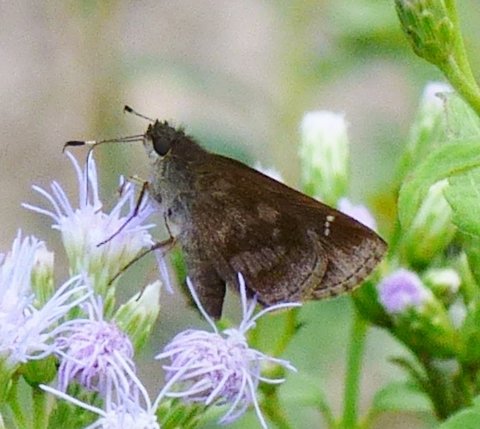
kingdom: Animalia
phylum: Arthropoda
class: Insecta
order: Lepidoptera
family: Hesperiidae
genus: Cymaenes
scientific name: Cymaenes odilia
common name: Fawn-spotted Skipper
